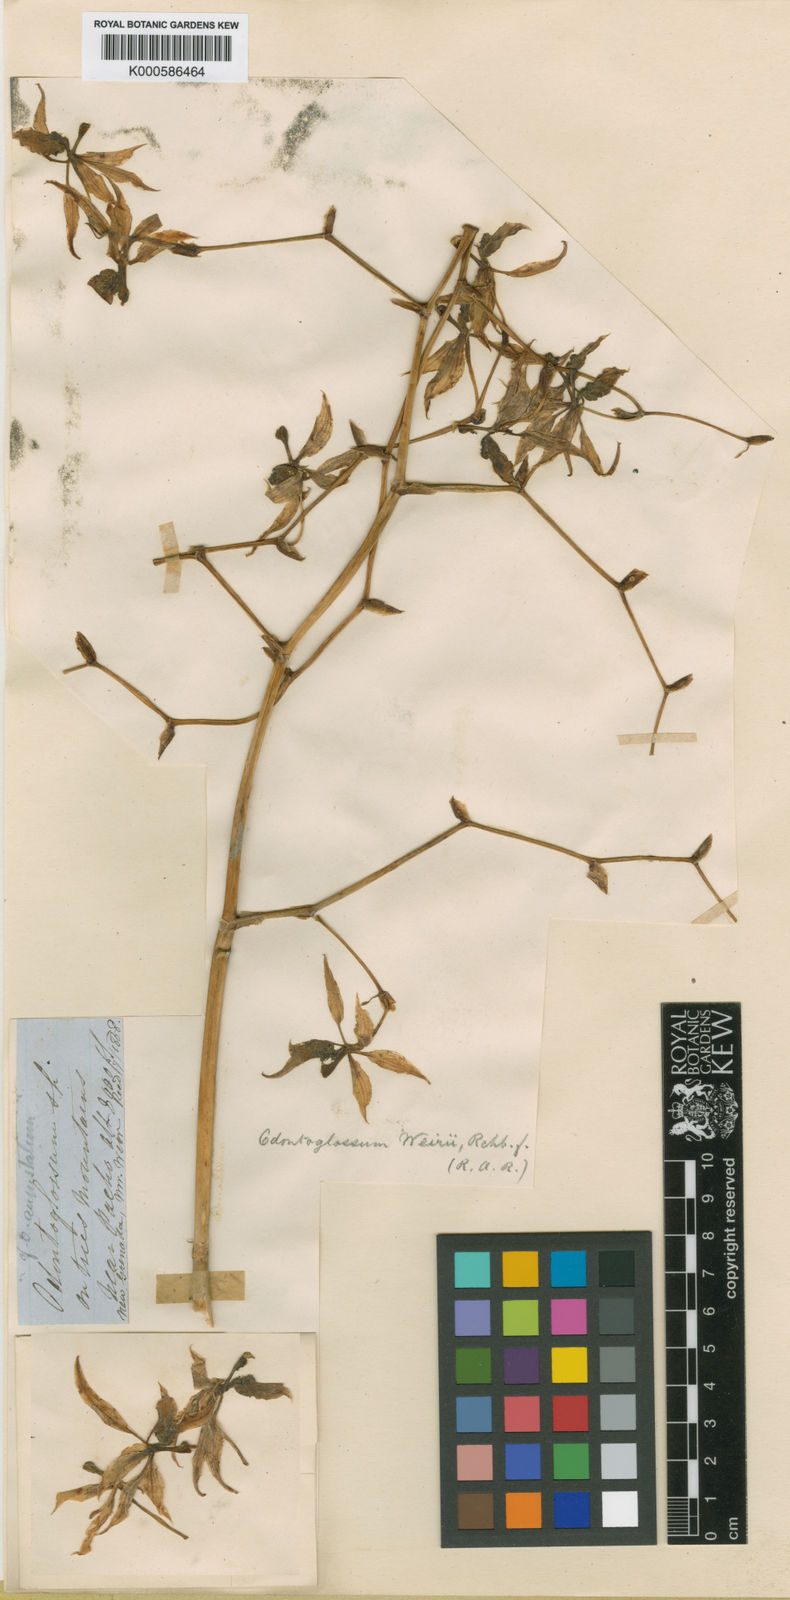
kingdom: Plantae
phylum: Tracheophyta
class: Liliopsida
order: Asparagales
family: Orchidaceae
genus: Cyrtochilum
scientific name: Cyrtochilum weirii
